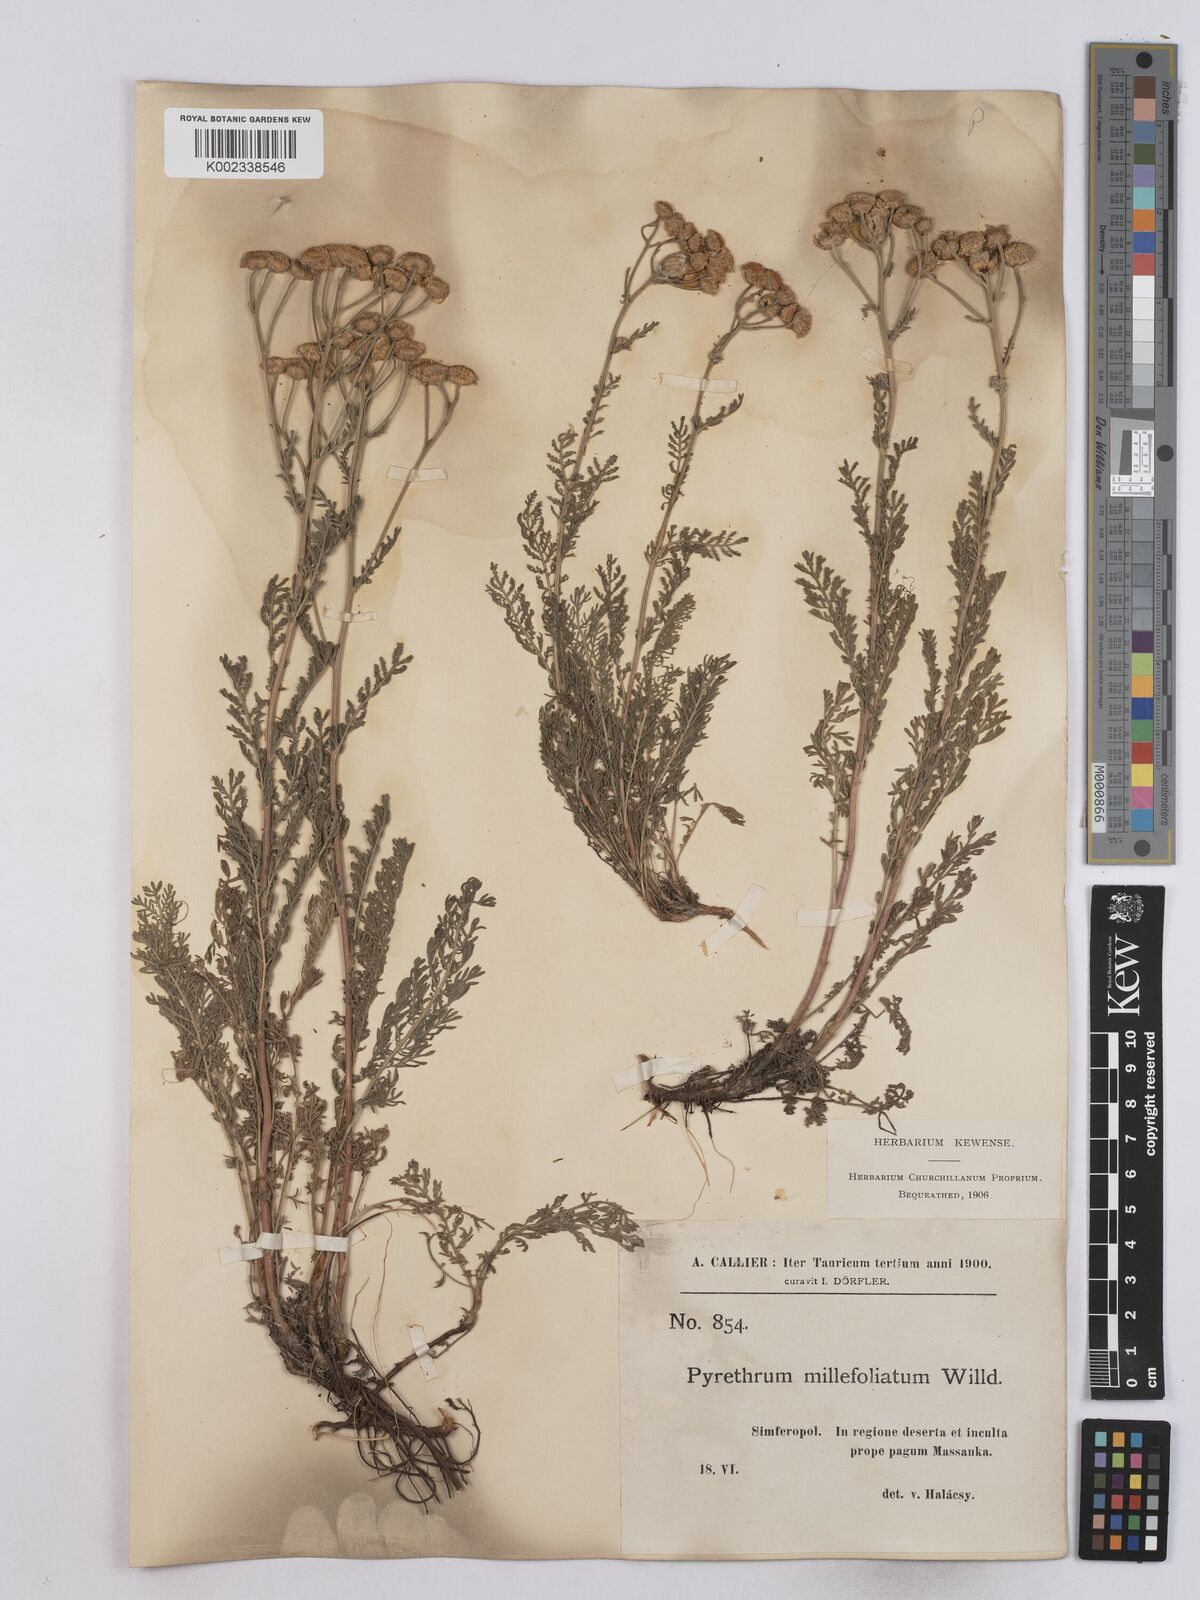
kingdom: Plantae
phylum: Tracheophyta
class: Magnoliopsida
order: Asterales
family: Asteraceae
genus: Tanacetum
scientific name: Tanacetum millefolium
